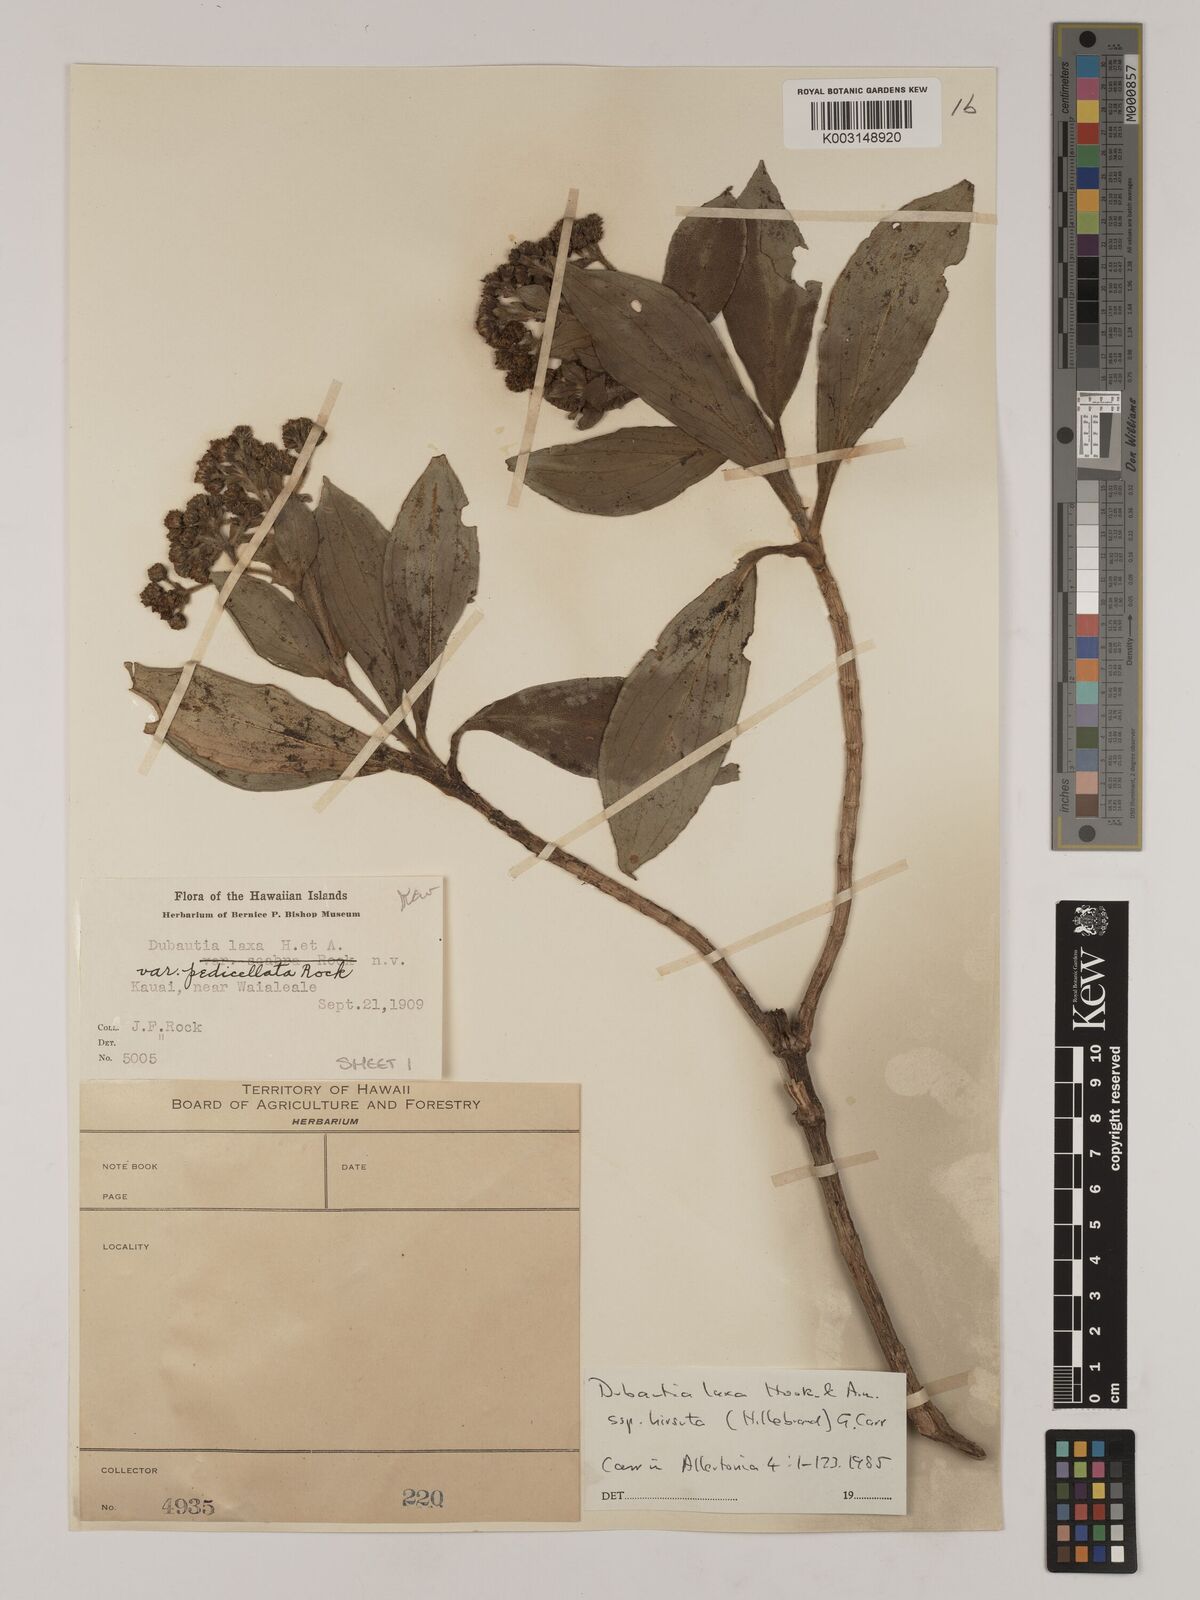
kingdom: Plantae
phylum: Tracheophyta
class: Magnoliopsida
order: Asterales
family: Asteraceae
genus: Dubautia
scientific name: Dubautia laxa
